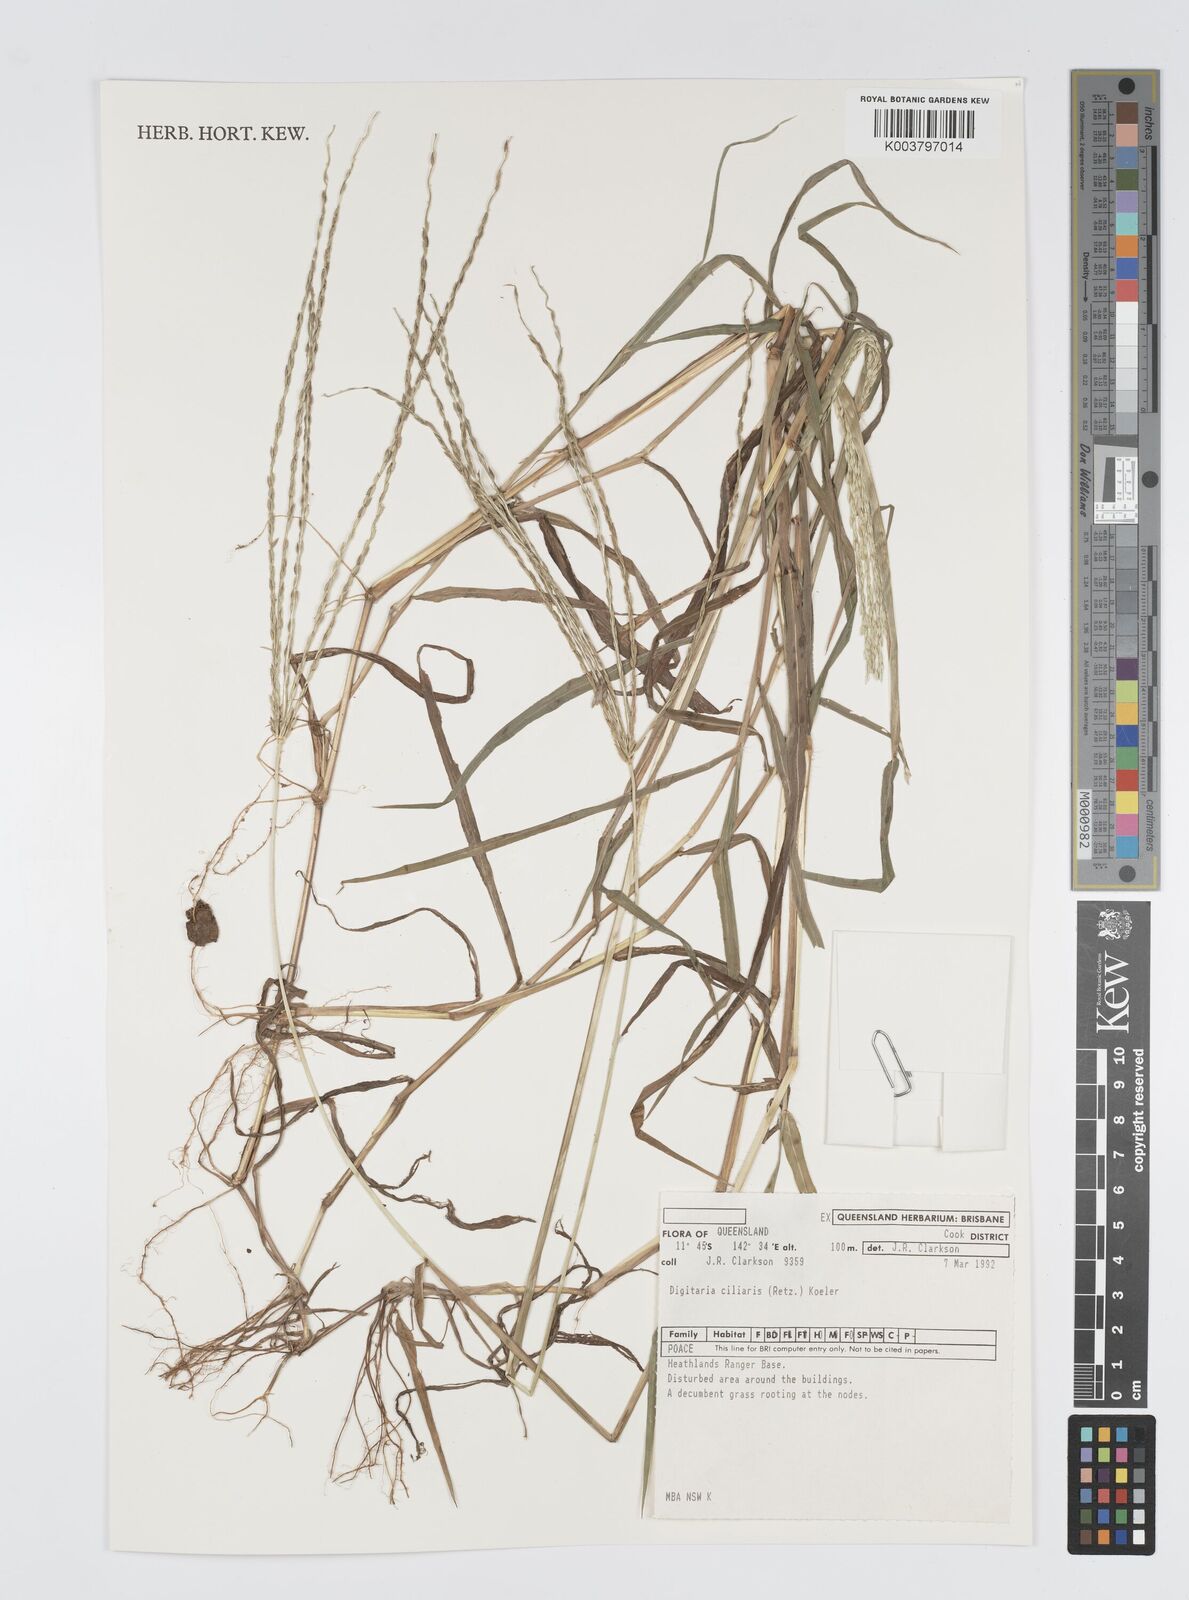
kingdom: Plantae
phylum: Tracheophyta
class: Liliopsida
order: Poales
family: Poaceae
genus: Digitaria
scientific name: Digitaria ciliaris
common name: Tropical finger-grass
